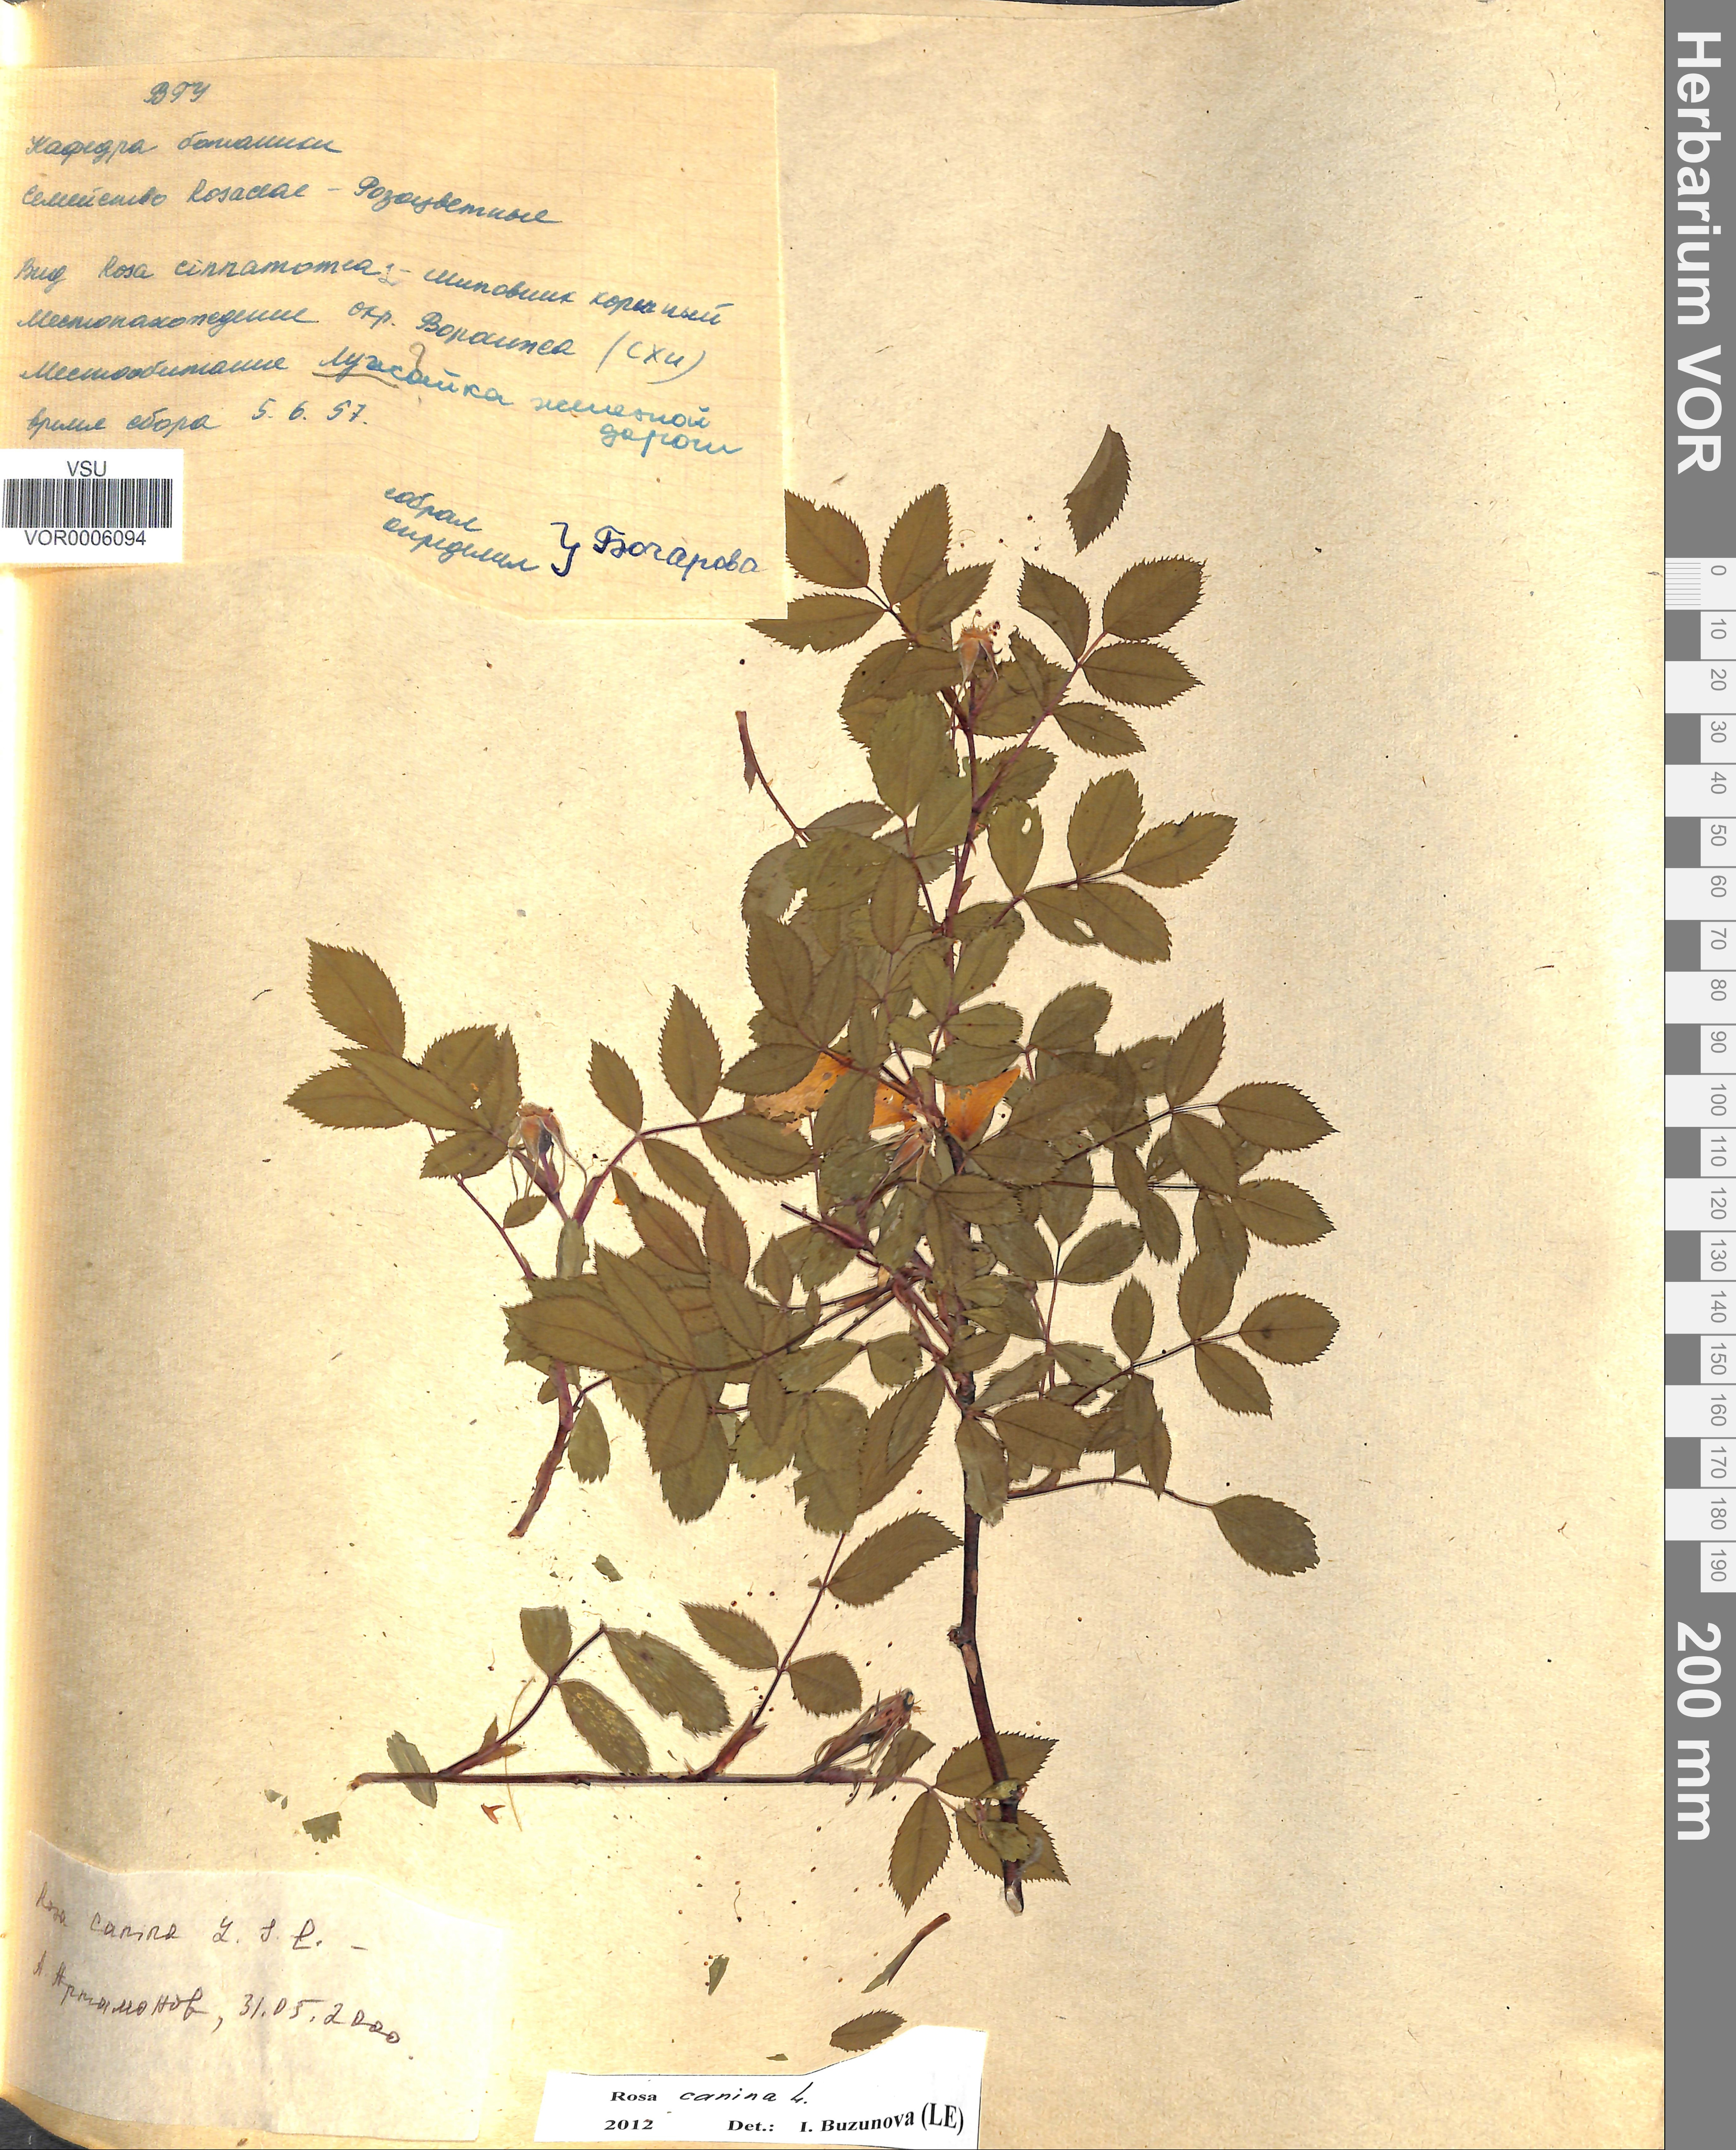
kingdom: Plantae
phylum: Tracheophyta
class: Magnoliopsida
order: Rosales
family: Rosaceae
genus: Rosa
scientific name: Rosa canina
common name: Dog rose
